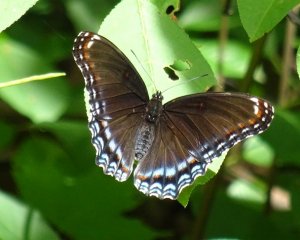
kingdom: Animalia
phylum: Arthropoda
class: Insecta
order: Lepidoptera
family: Nymphalidae
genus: Limenitis
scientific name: Limenitis astyanax
